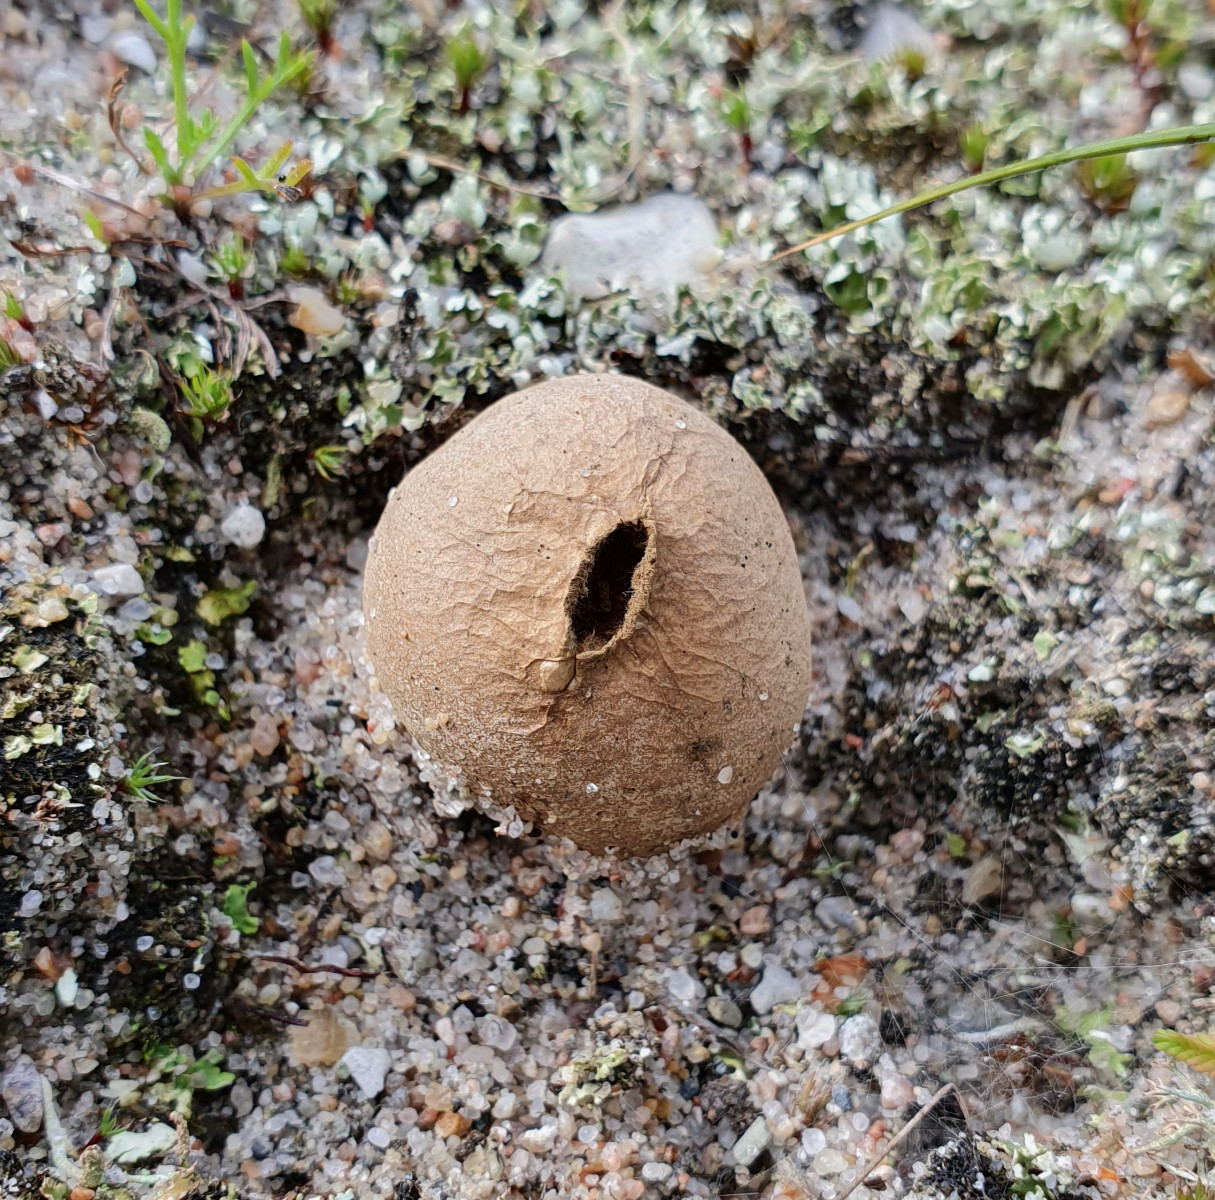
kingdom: Fungi
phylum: Basidiomycota
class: Agaricomycetes
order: Agaricales
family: Lycoperdaceae
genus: Lycoperdon
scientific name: Lycoperdon lividum
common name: mark-støvbold
